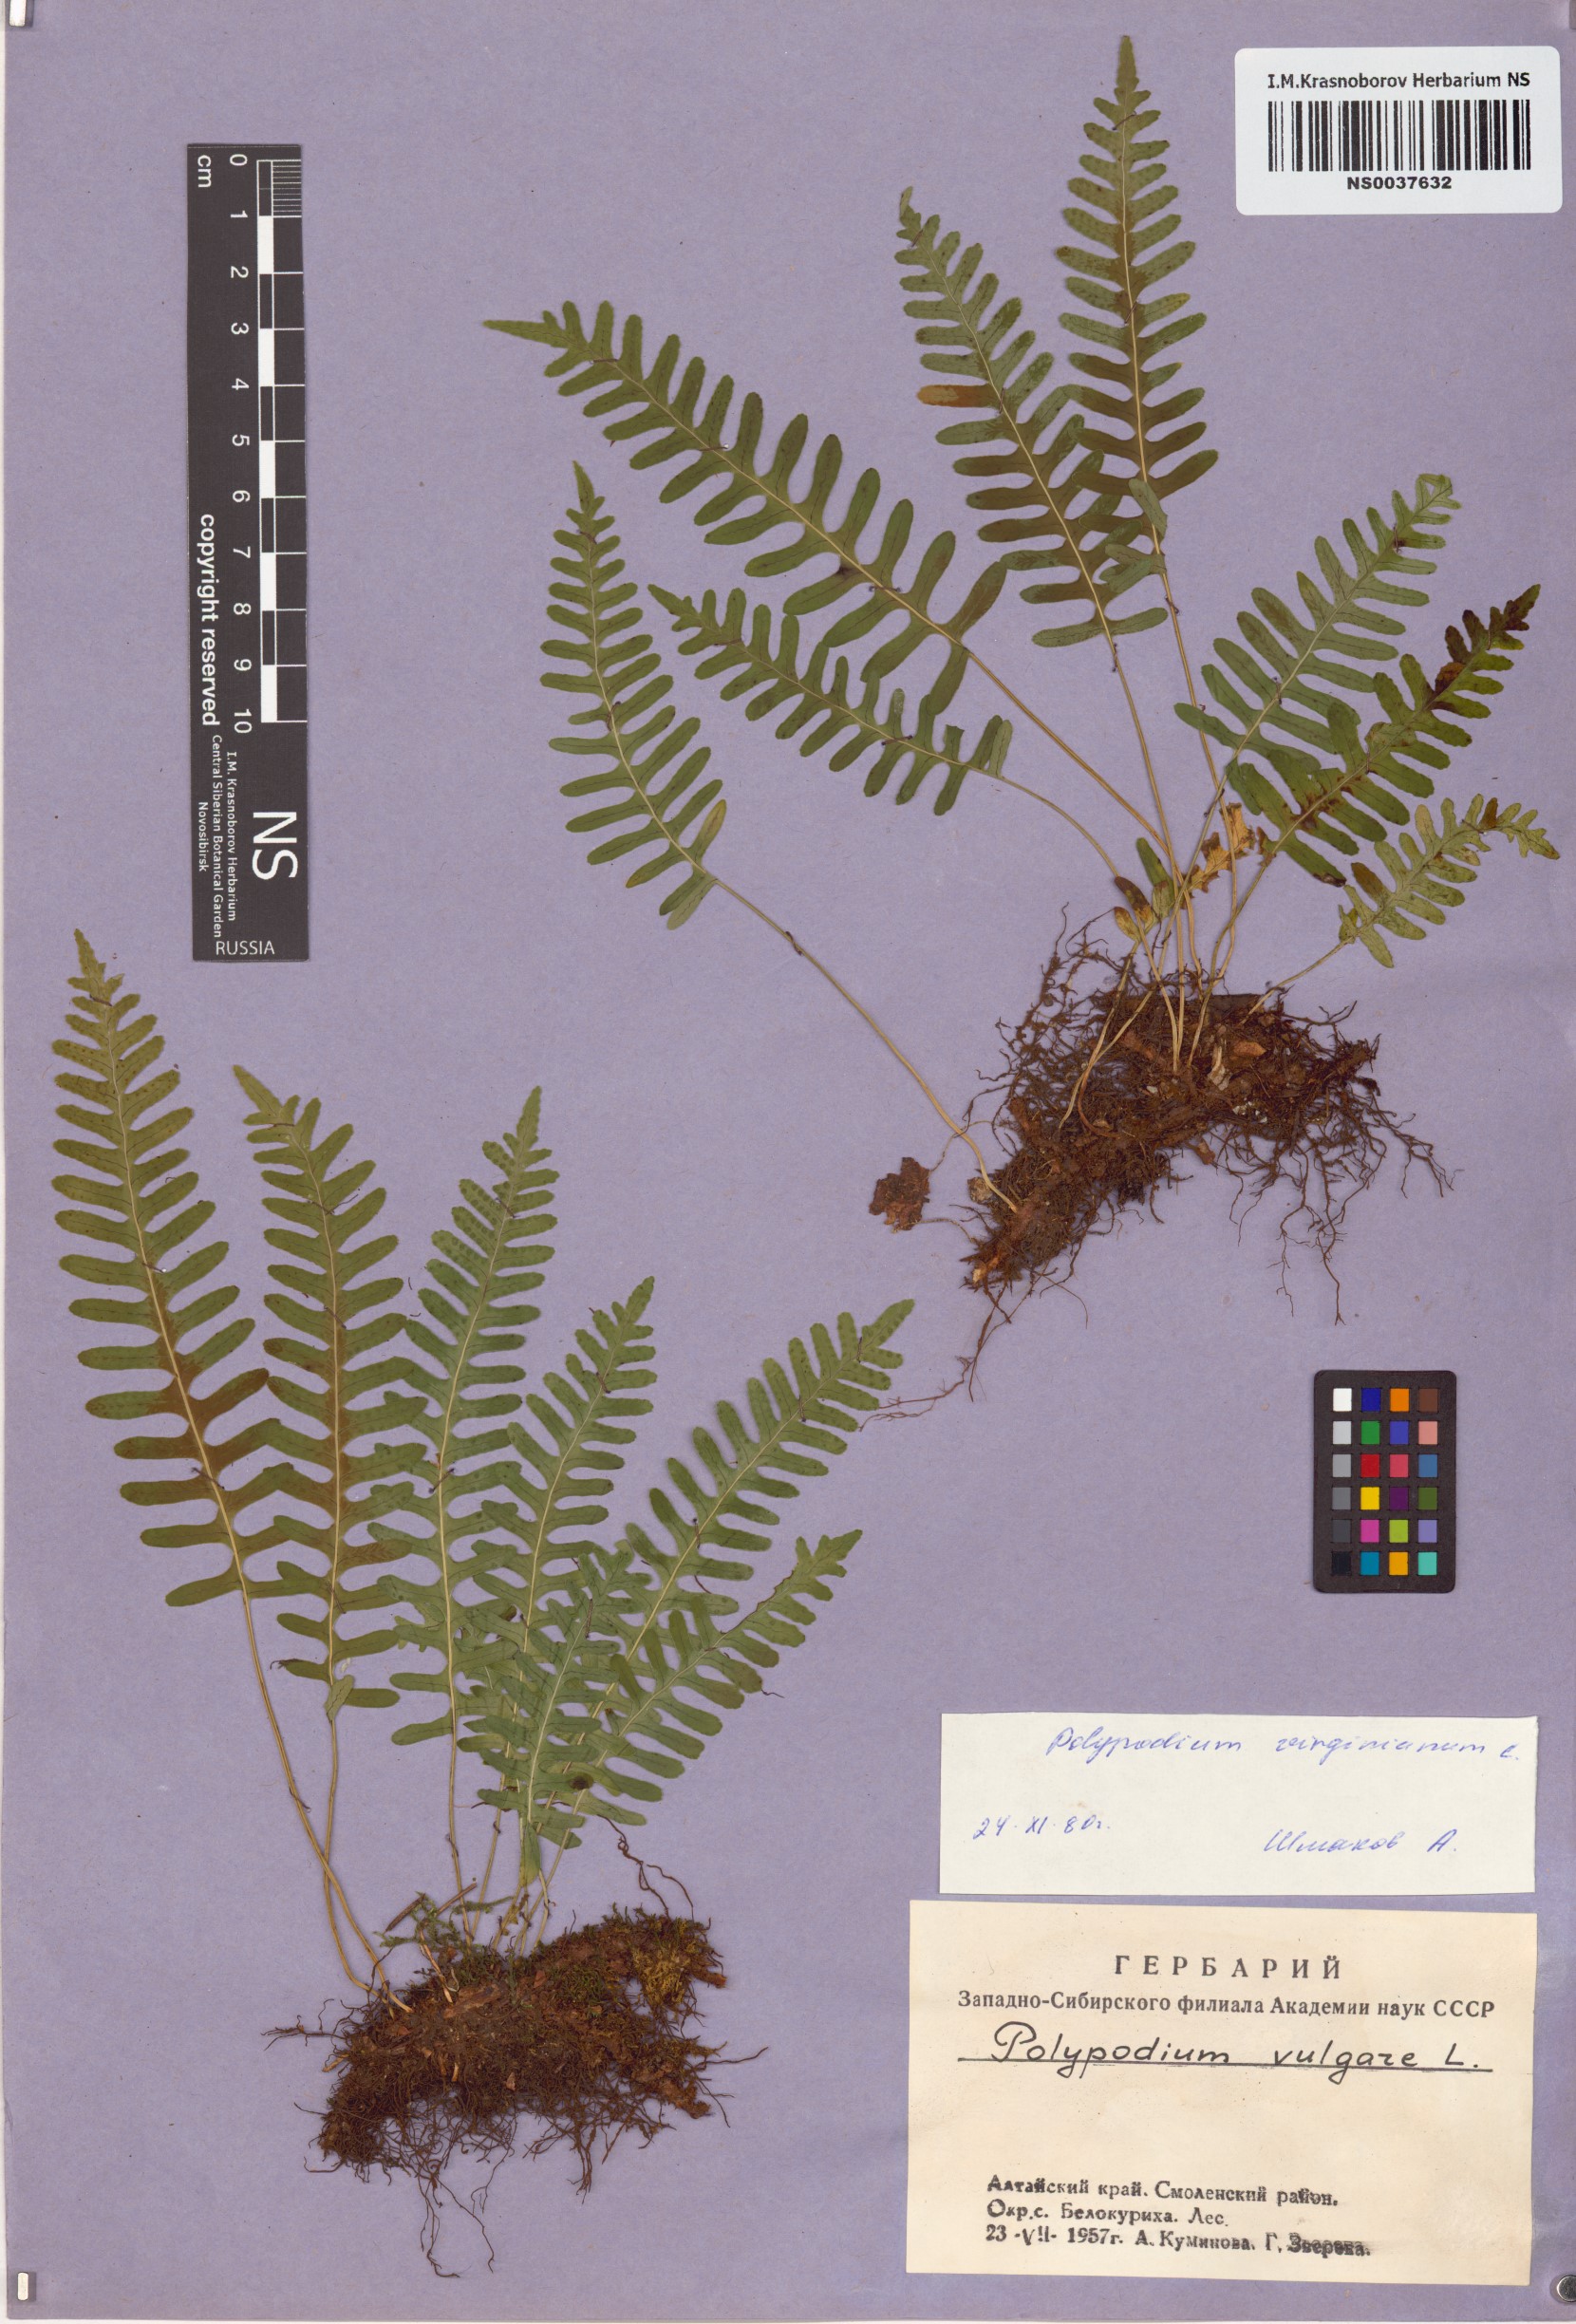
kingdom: Plantae
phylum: Tracheophyta
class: Polypodiopsida
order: Polypodiales
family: Polypodiaceae
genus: Polypodium
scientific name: Polypodium virginianum
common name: American wall fern
